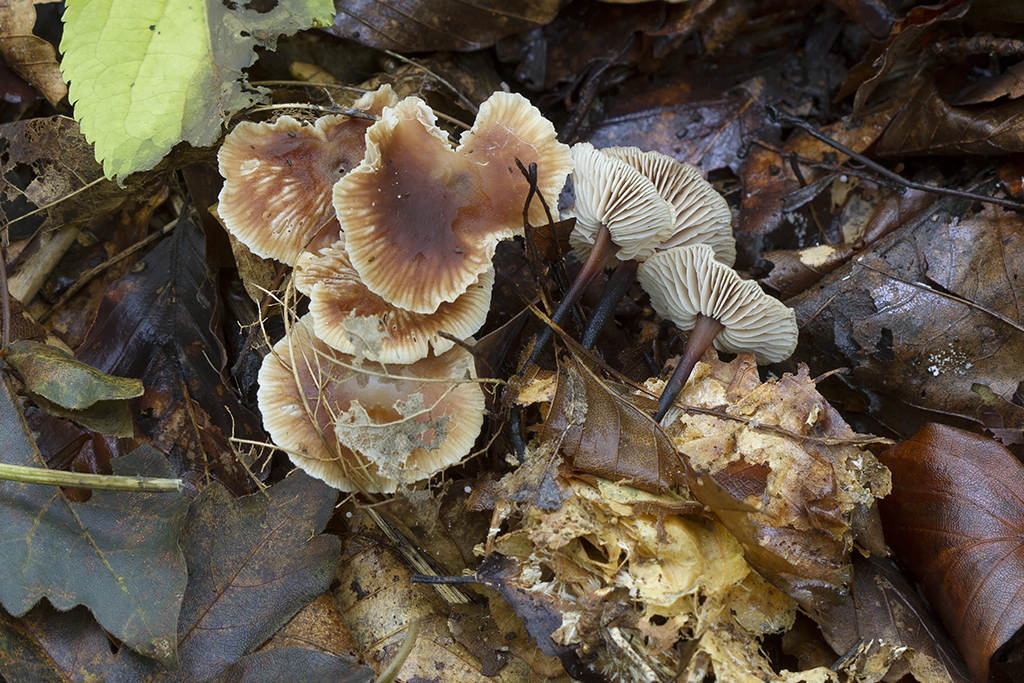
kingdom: Fungi
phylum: Basidiomycota
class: Agaricomycetes
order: Agaricales
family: Omphalotaceae
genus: Gymnopus
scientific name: Gymnopus brassicolens
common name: kål-fladhat
